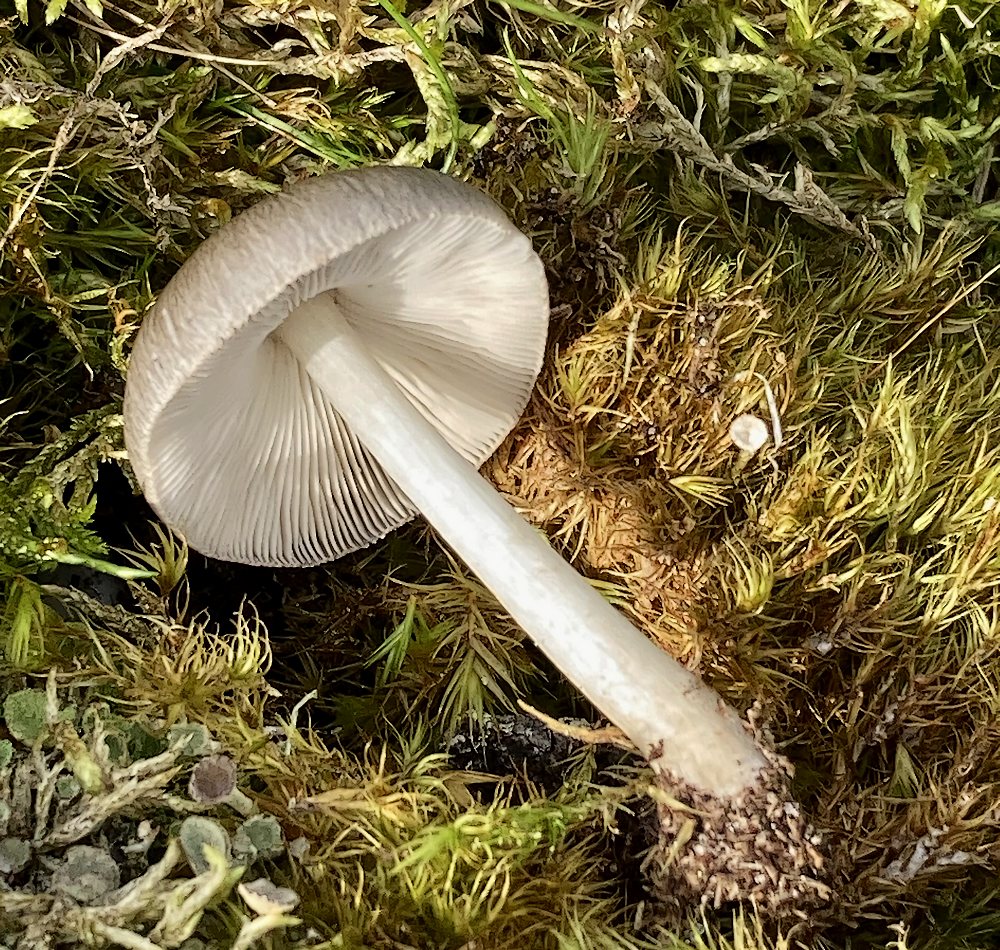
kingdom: Fungi
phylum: Basidiomycota
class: Agaricomycetes
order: Agaricales
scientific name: Agaricales
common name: champignonordenen
